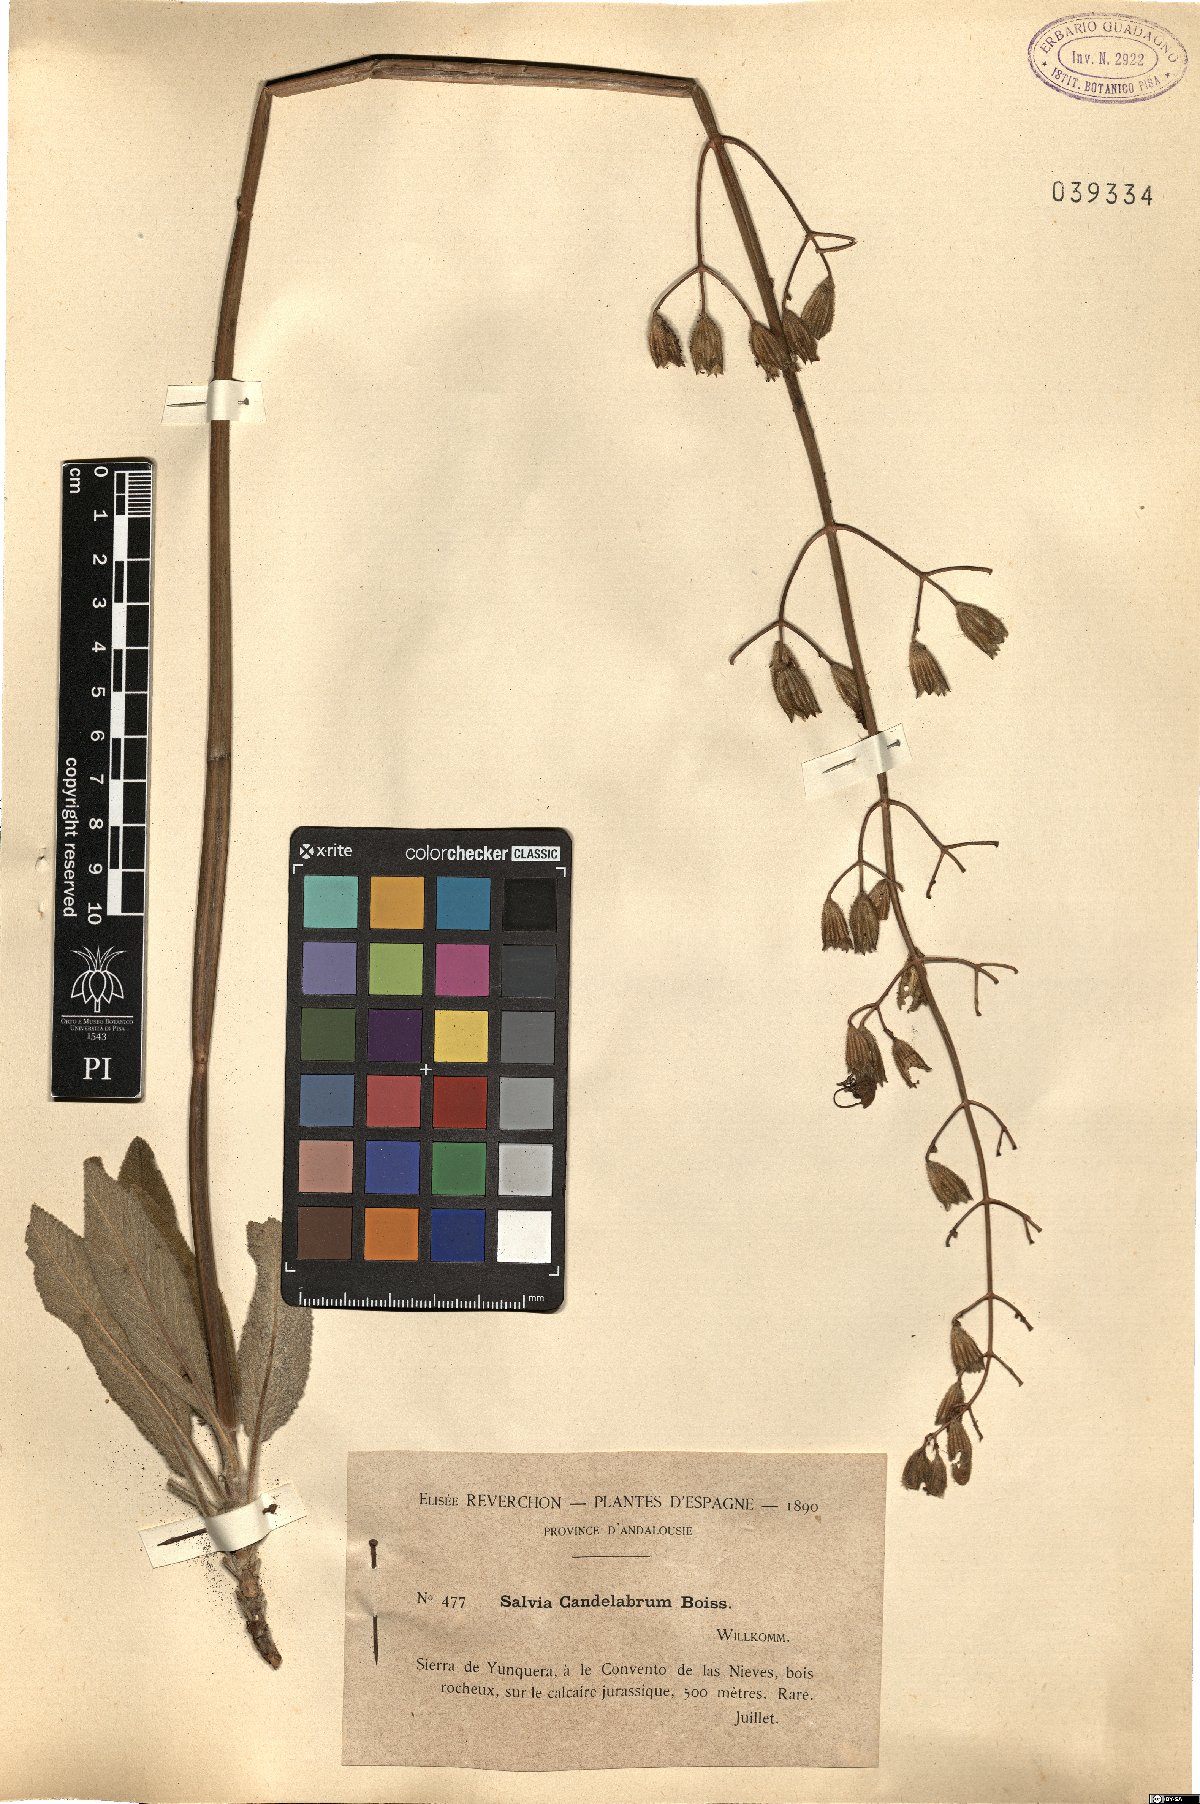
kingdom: Plantae
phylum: Tracheophyta
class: Magnoliopsida
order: Lamiales
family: Lamiaceae
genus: Salvia
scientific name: Salvia candelabrum
